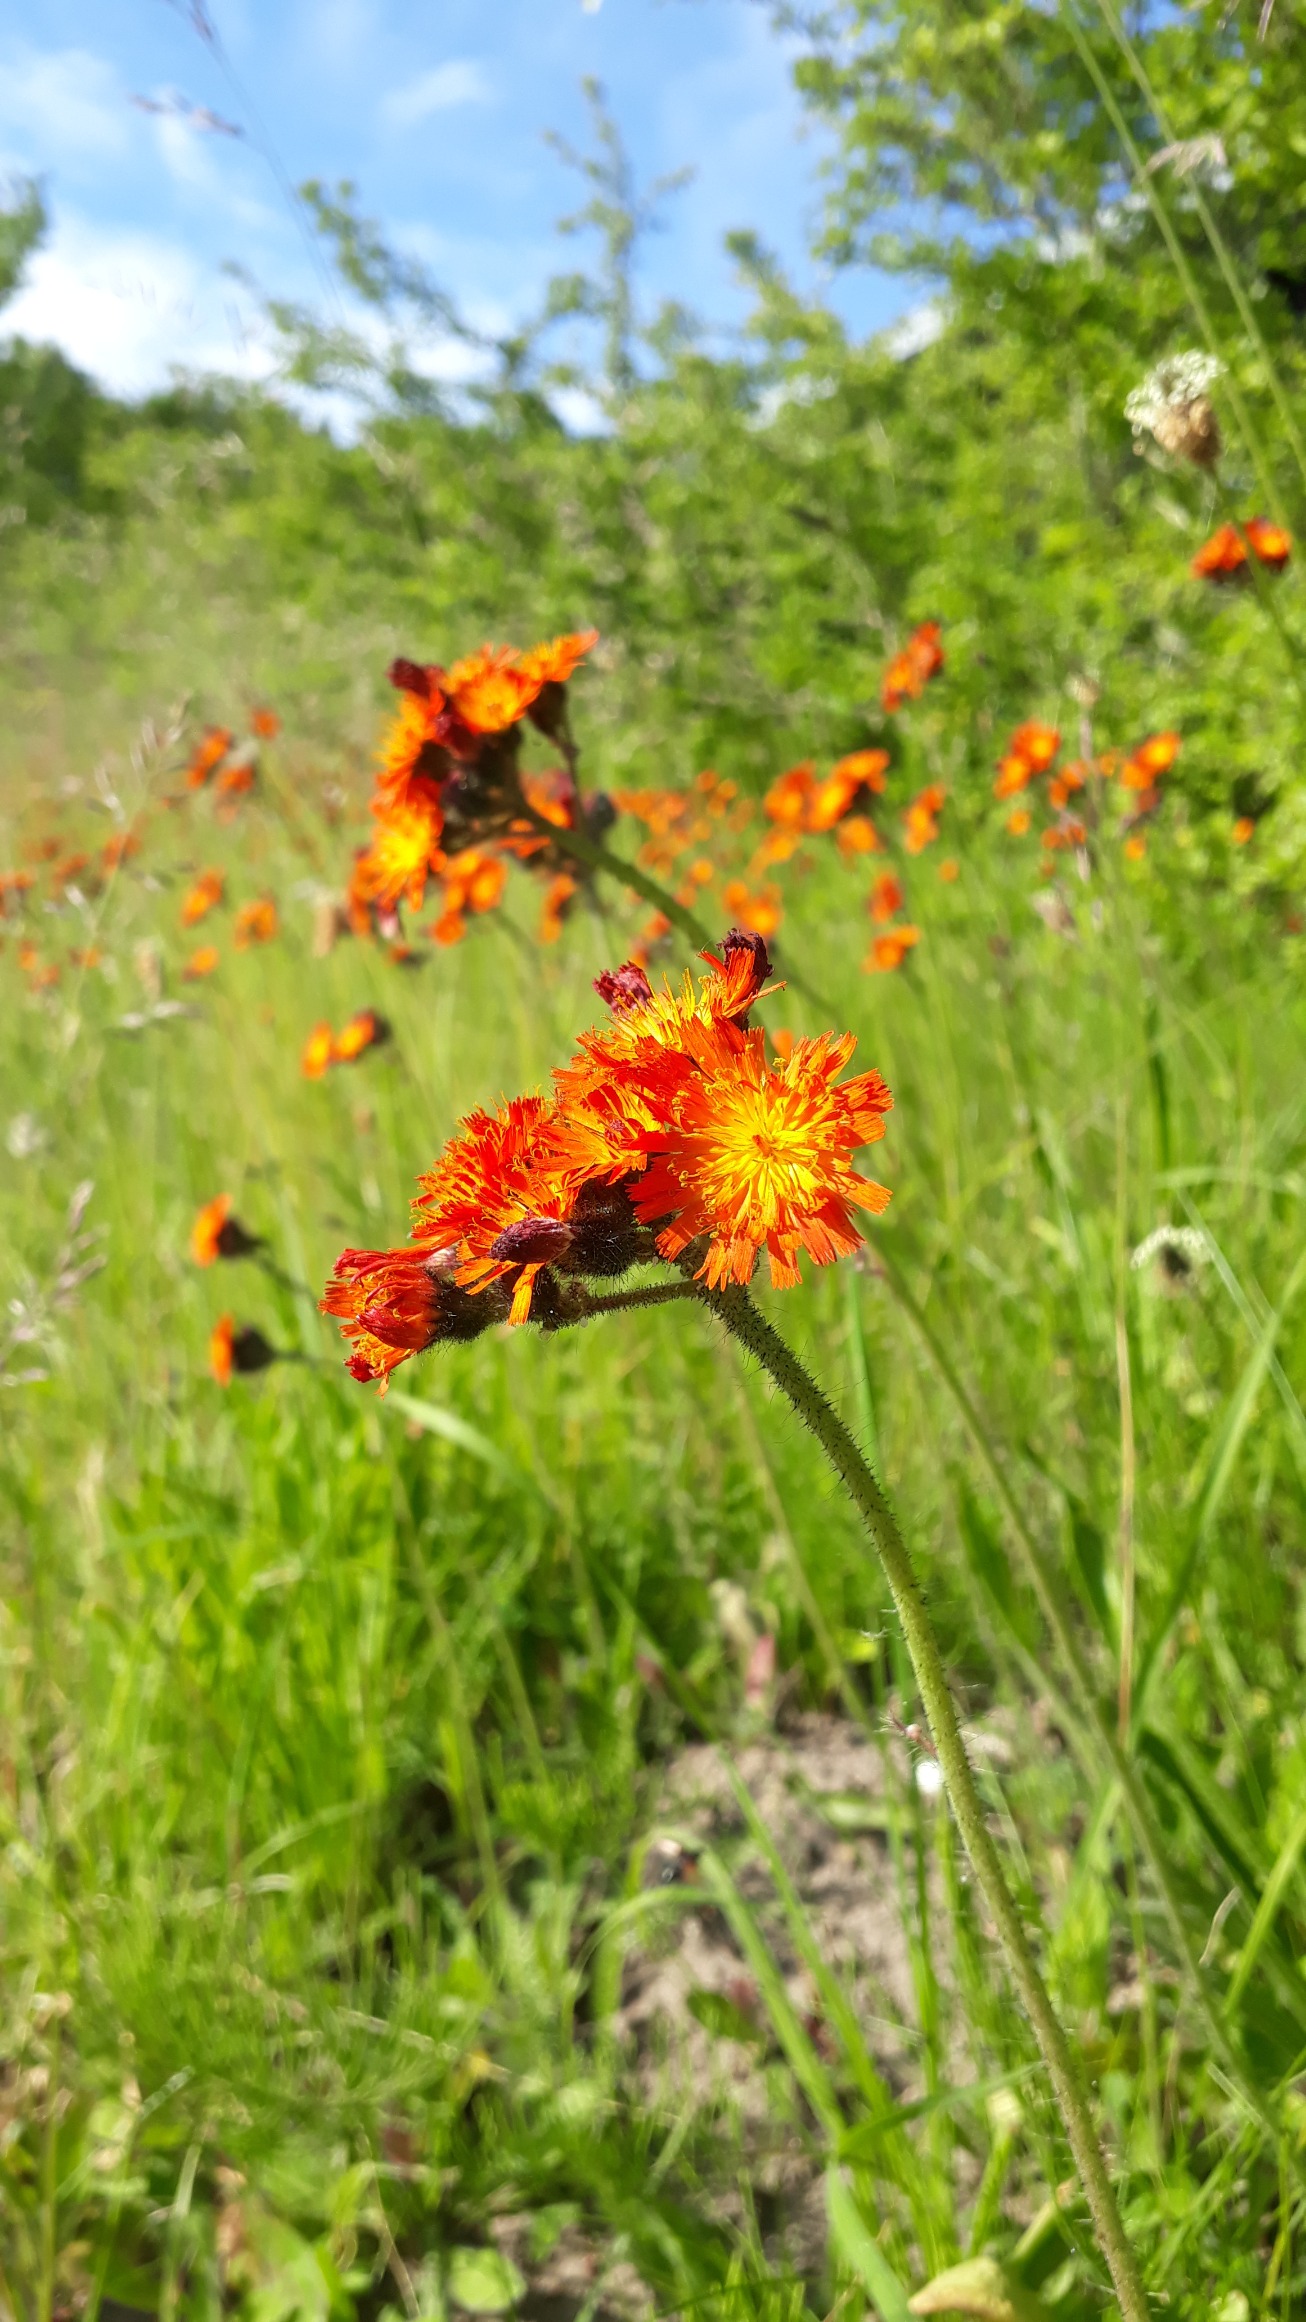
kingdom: Plantae
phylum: Tracheophyta
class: Magnoliopsida
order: Asterales
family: Asteraceae
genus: Pilosella
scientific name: Pilosella aurantiaca
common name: Pomerans-høgeurt
